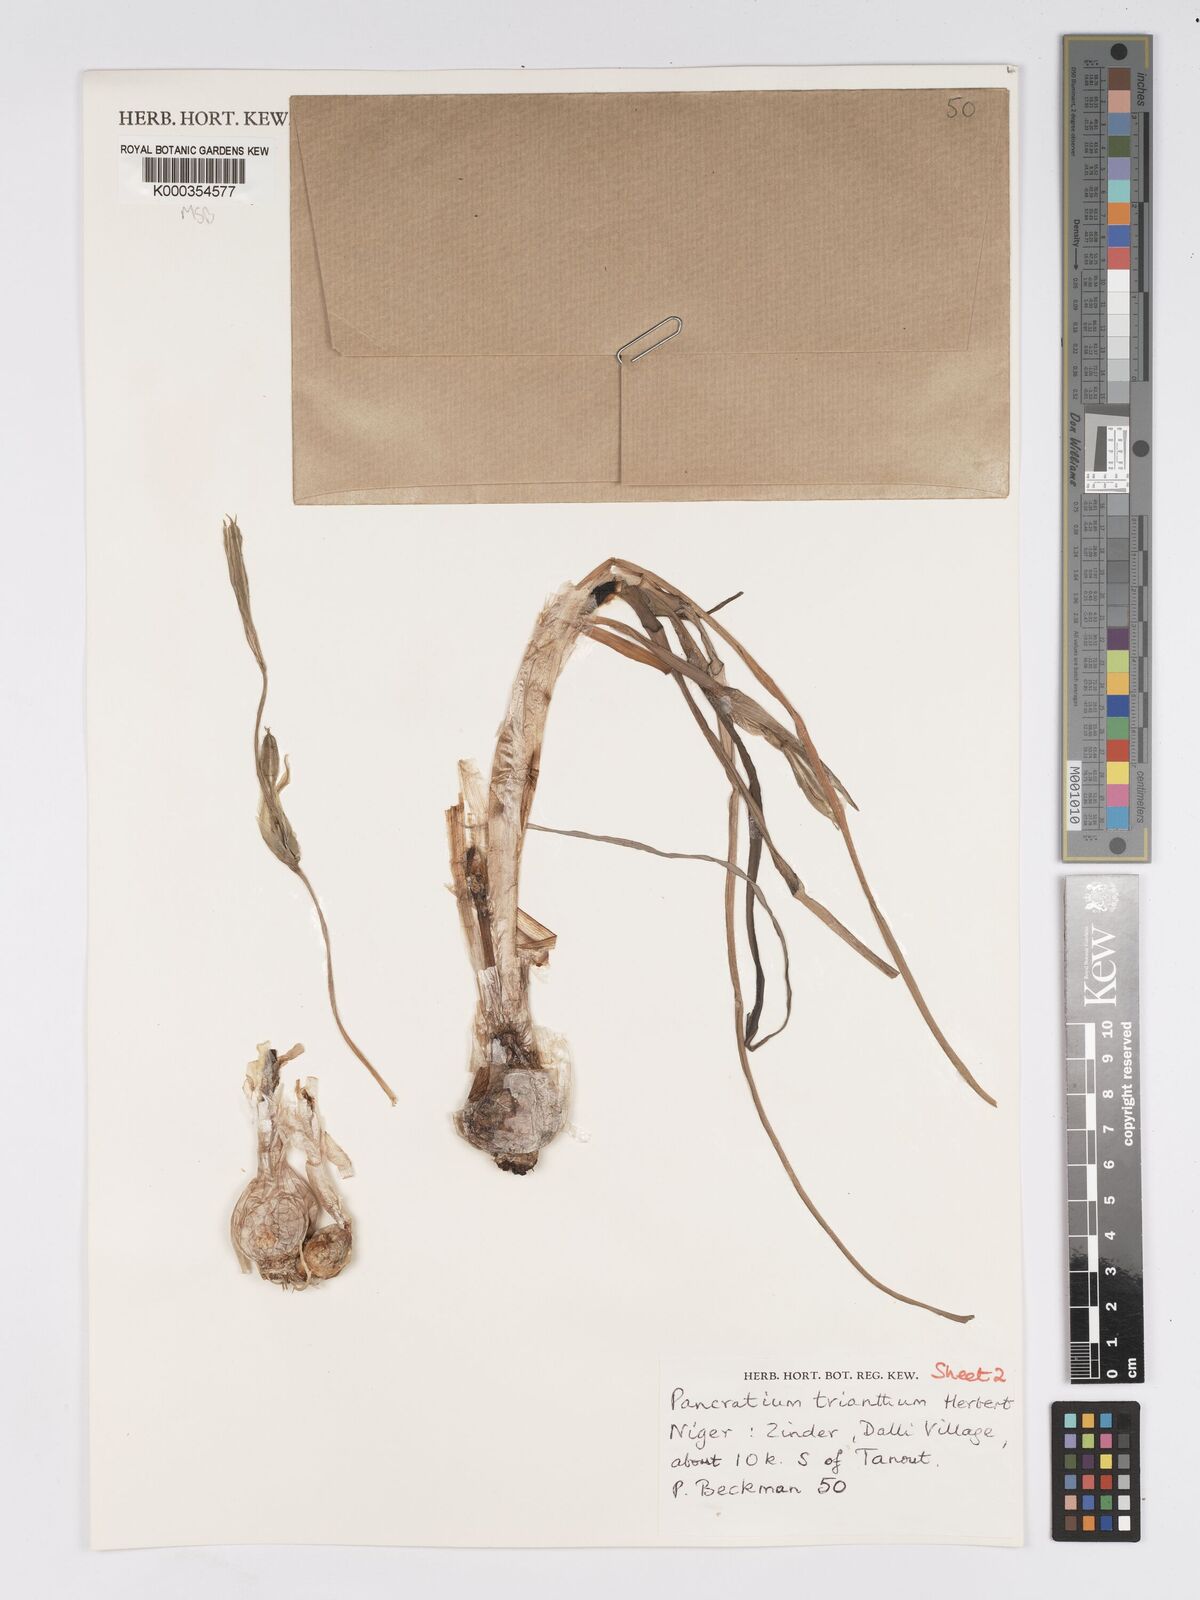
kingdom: Plantae
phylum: Tracheophyta
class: Liliopsida
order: Asparagales
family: Amaryllidaceae
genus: Pancratium
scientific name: Pancratium trianthum
